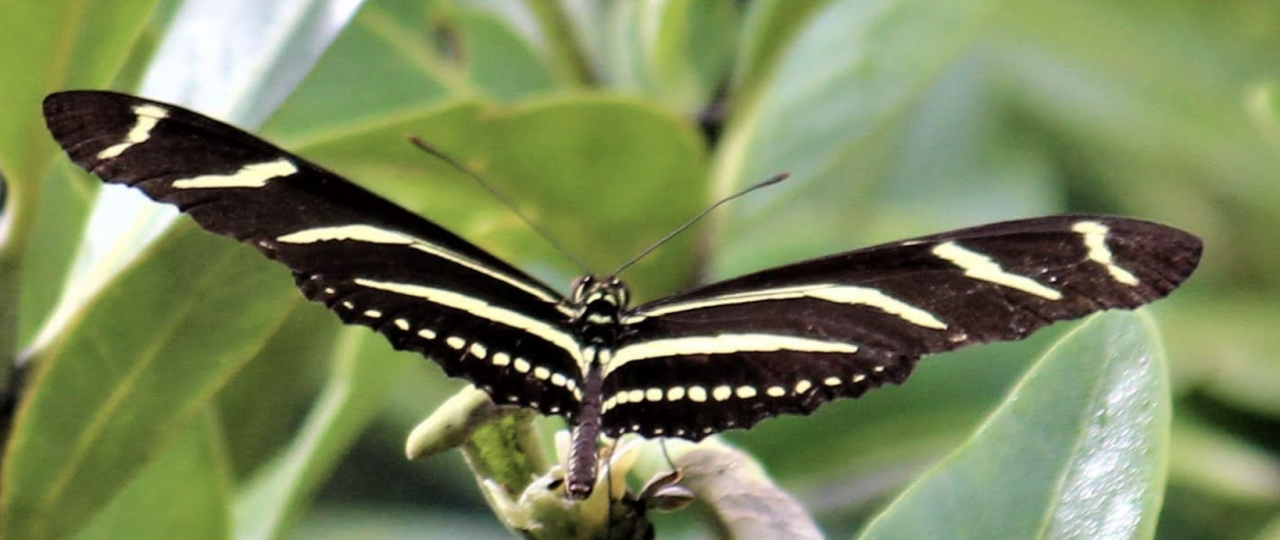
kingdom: Animalia
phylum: Arthropoda
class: Insecta
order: Lepidoptera
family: Nymphalidae
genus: Heliconius
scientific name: Heliconius charithonia
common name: Zebra Longwing
